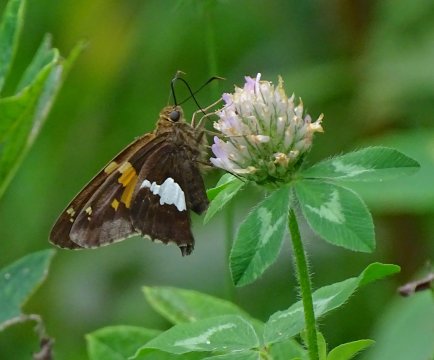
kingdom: Animalia
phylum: Arthropoda
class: Insecta
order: Lepidoptera
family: Hesperiidae
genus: Epargyreus
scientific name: Epargyreus clarus
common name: Silver-spotted Skipper
